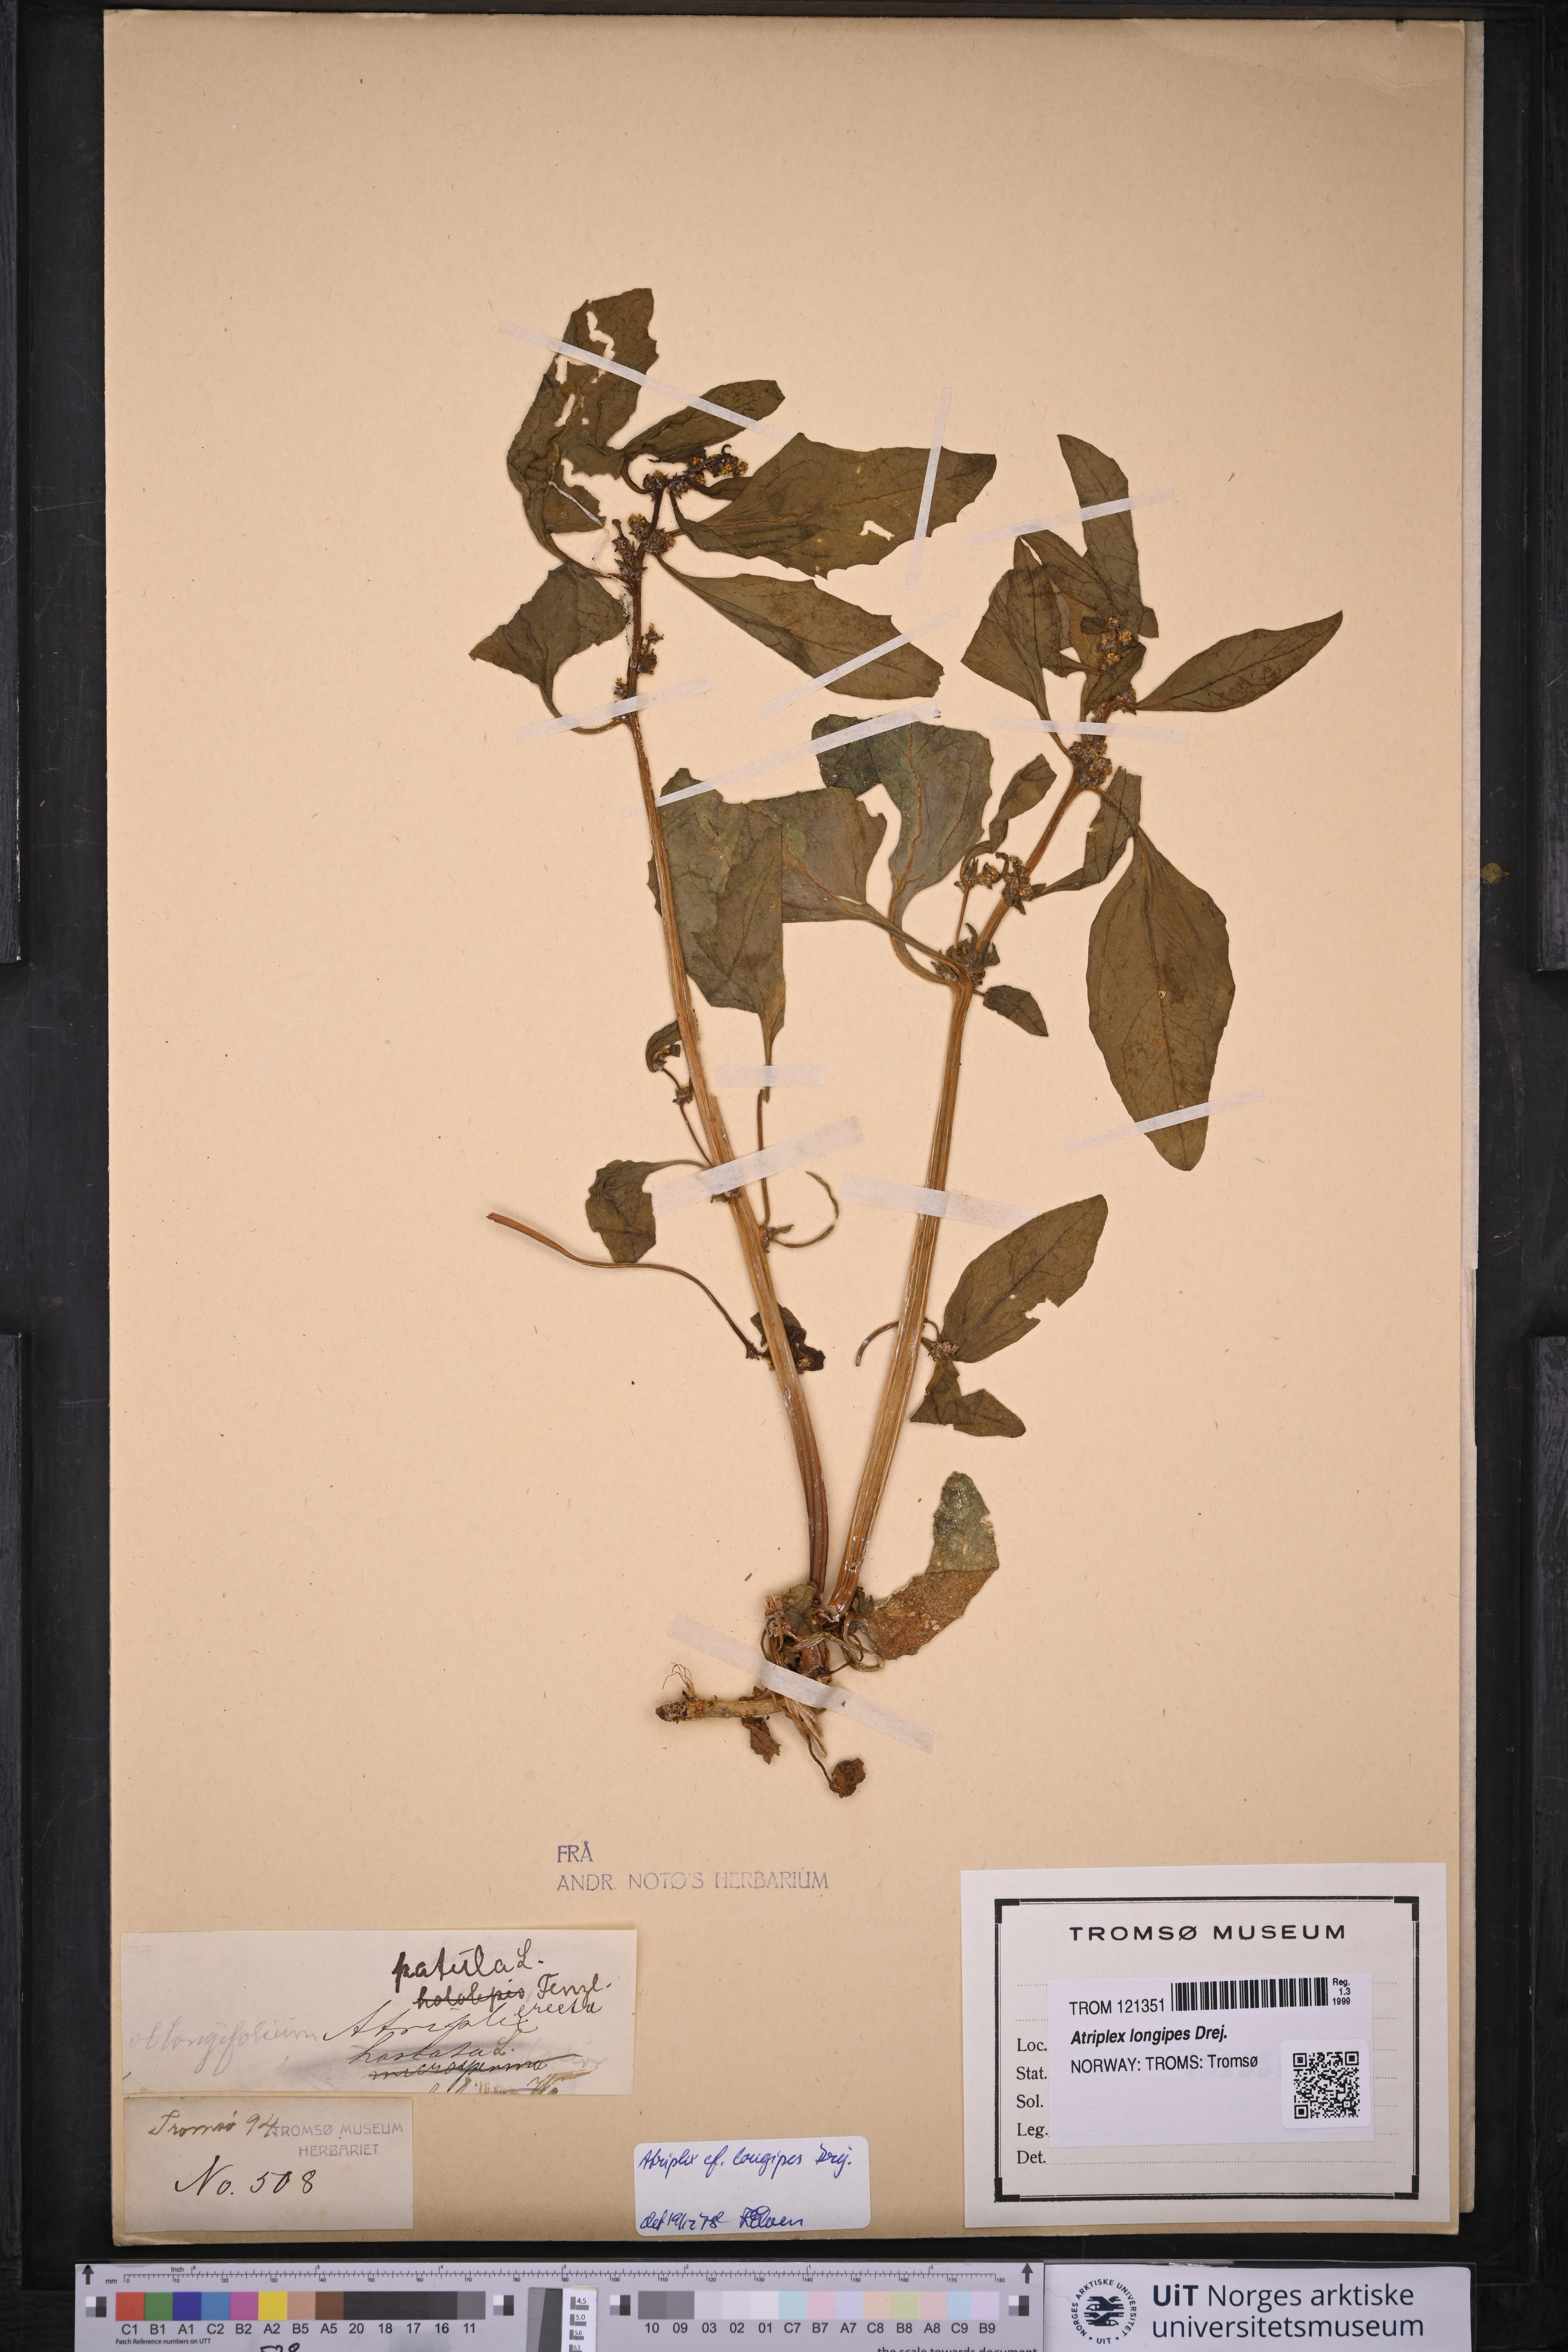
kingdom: Plantae
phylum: Tracheophyta
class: Magnoliopsida
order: Caryophyllales
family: Amaranthaceae
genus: Atriplex
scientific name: Atriplex longipes
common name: Long-stalked orache
